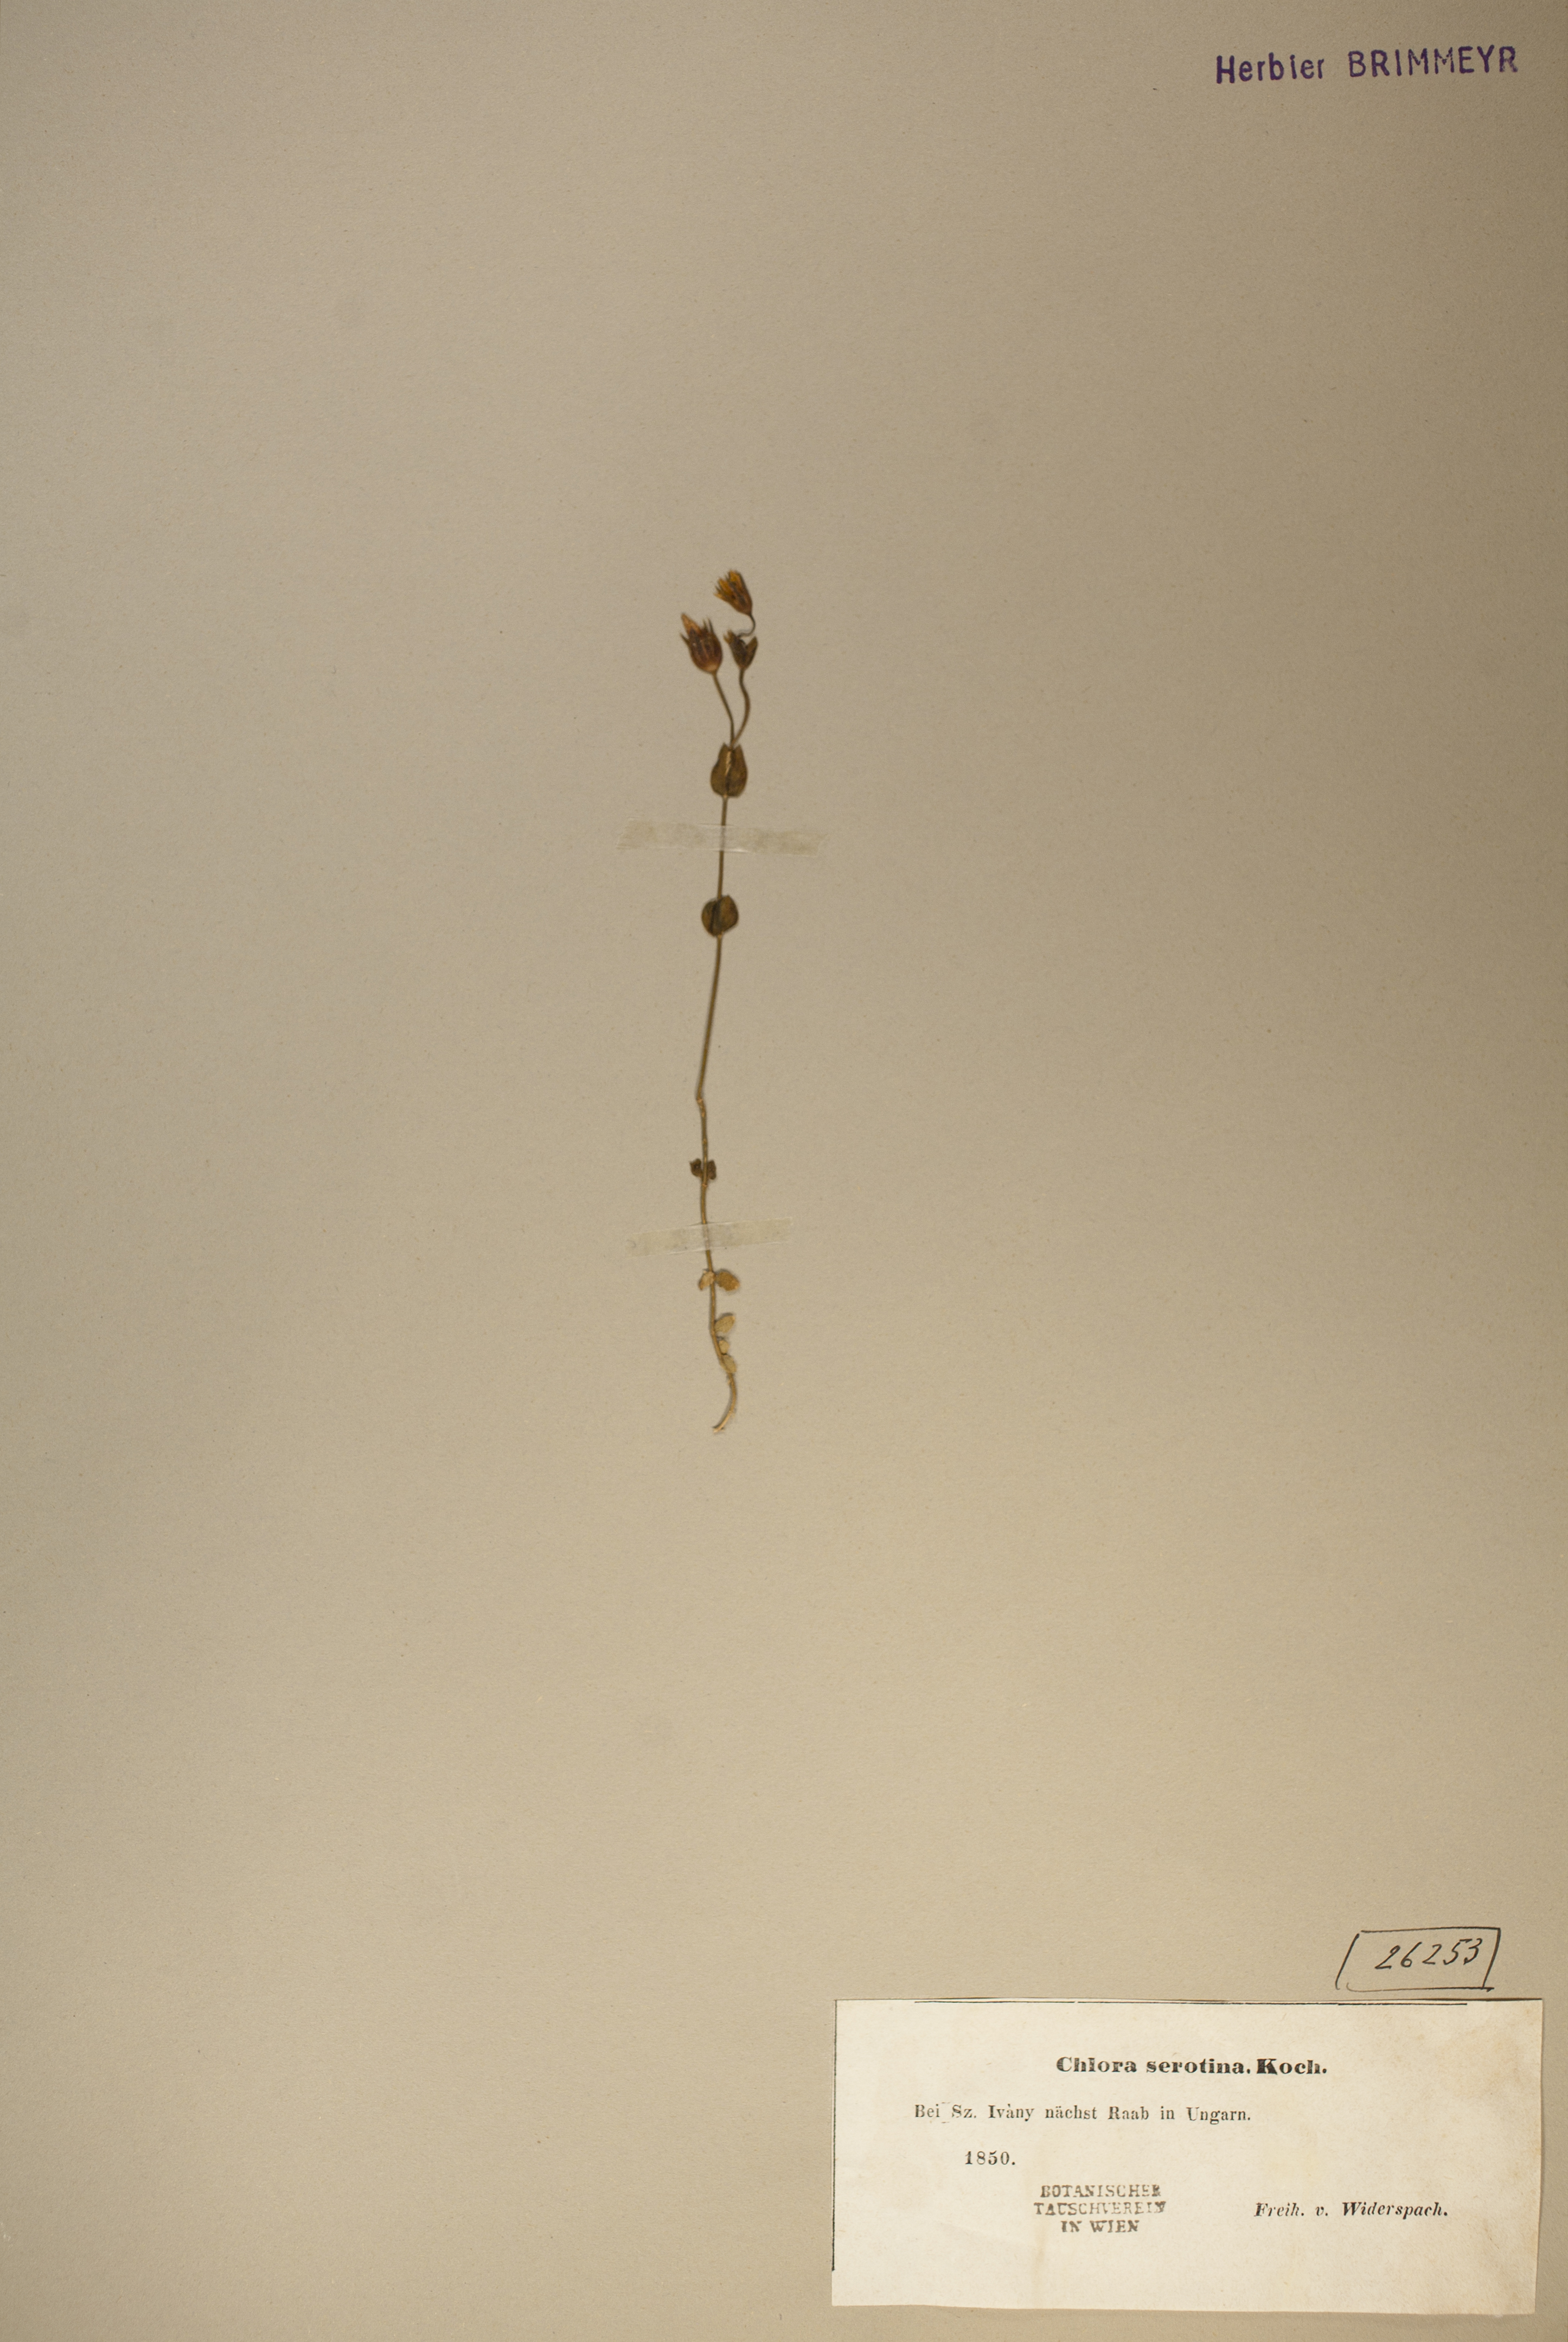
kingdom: Plantae
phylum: Tracheophyta
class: Magnoliopsida
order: Gentianales
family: Gentianaceae
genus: Blackstonia
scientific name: Blackstonia acuminata
